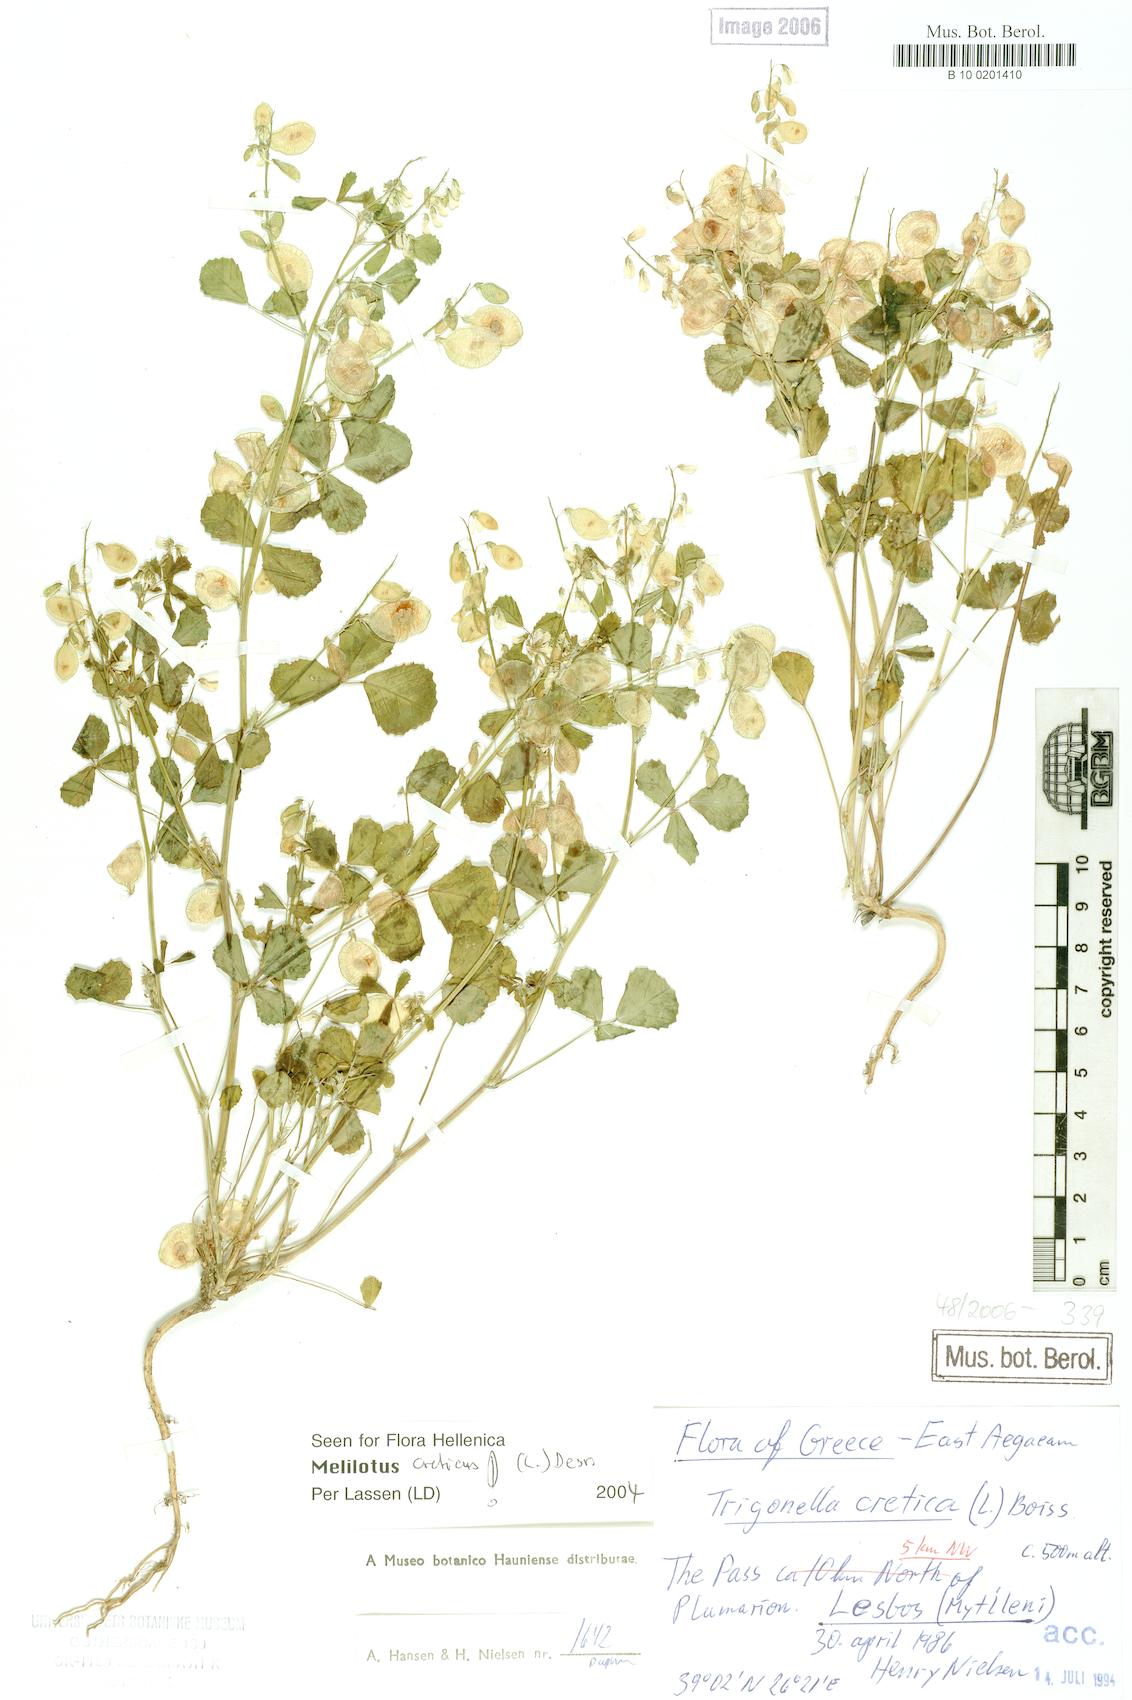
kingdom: Plantae
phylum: Tracheophyta
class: Magnoliopsida
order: Fabales
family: Fabaceae
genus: Trigonella
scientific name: Trigonella cretica
